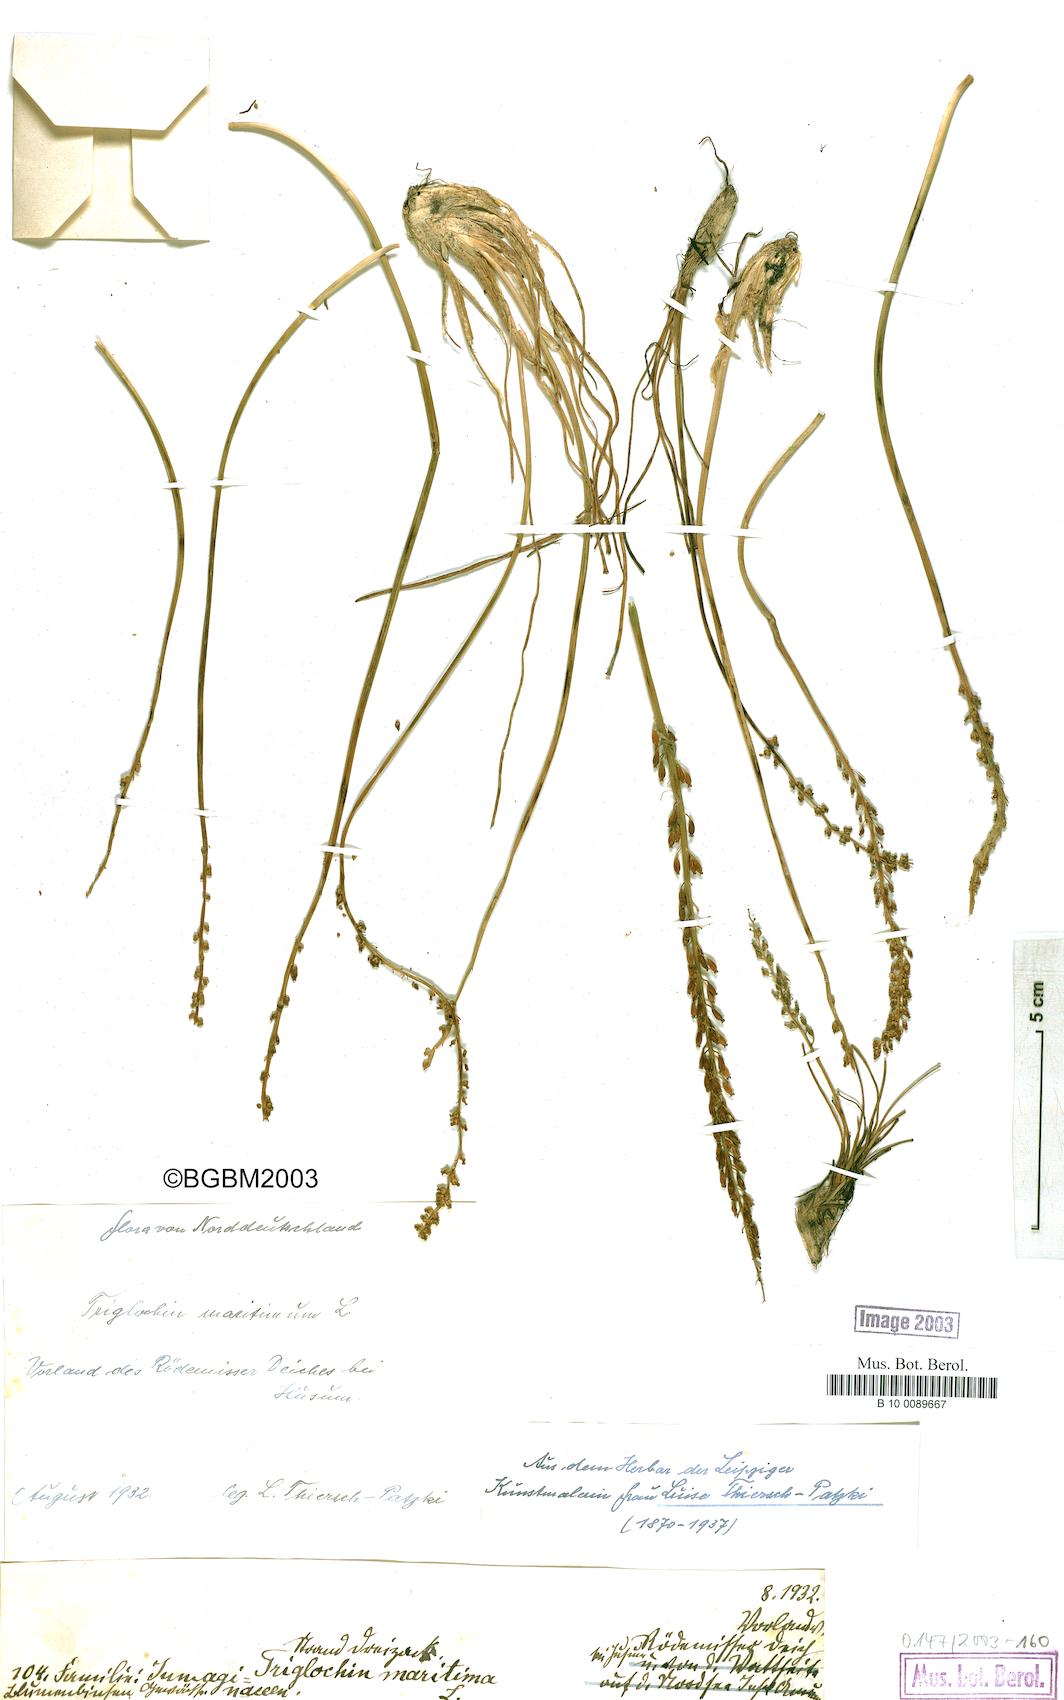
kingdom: Plantae
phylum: Tracheophyta
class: Liliopsida
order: Alismatales
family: Juncaginaceae
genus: Triglochin
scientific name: Triglochin maritima
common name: Sea arrowgrass
